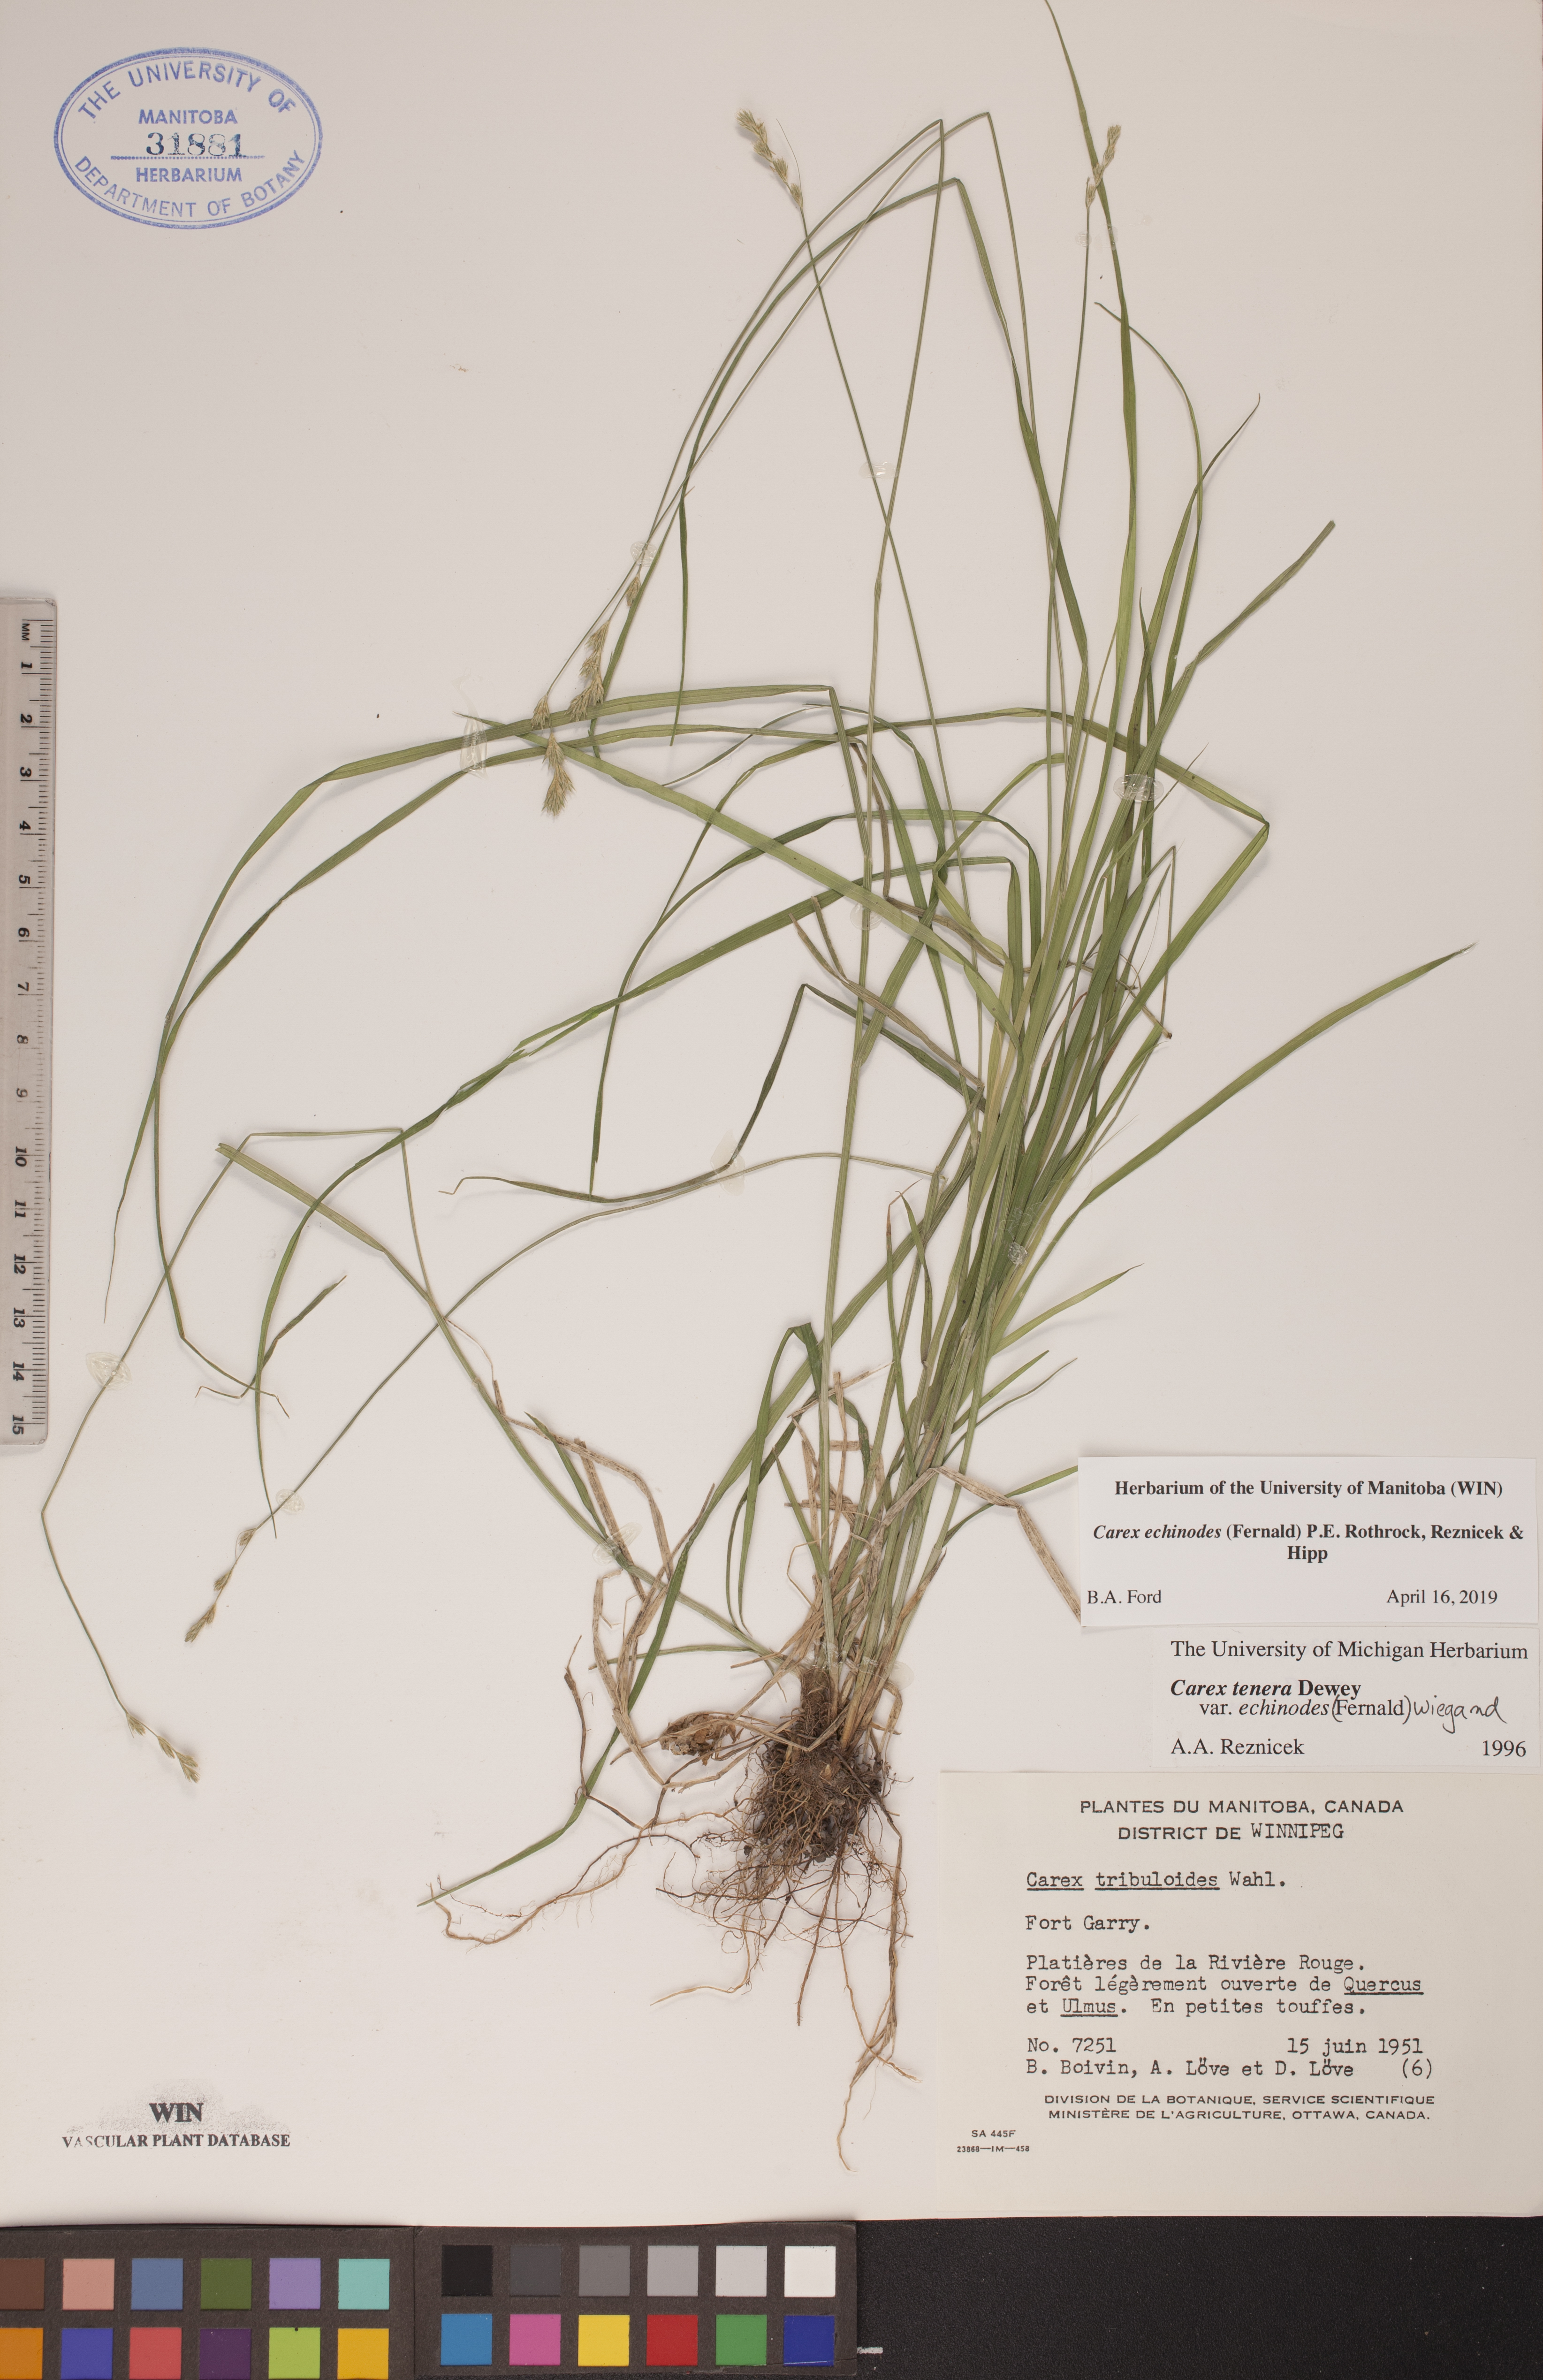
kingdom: Plantae
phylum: Tracheophyta
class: Liliopsida
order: Poales
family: Cyperaceae
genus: Carex
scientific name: Carex echinodes
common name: Marsh straw sedge
